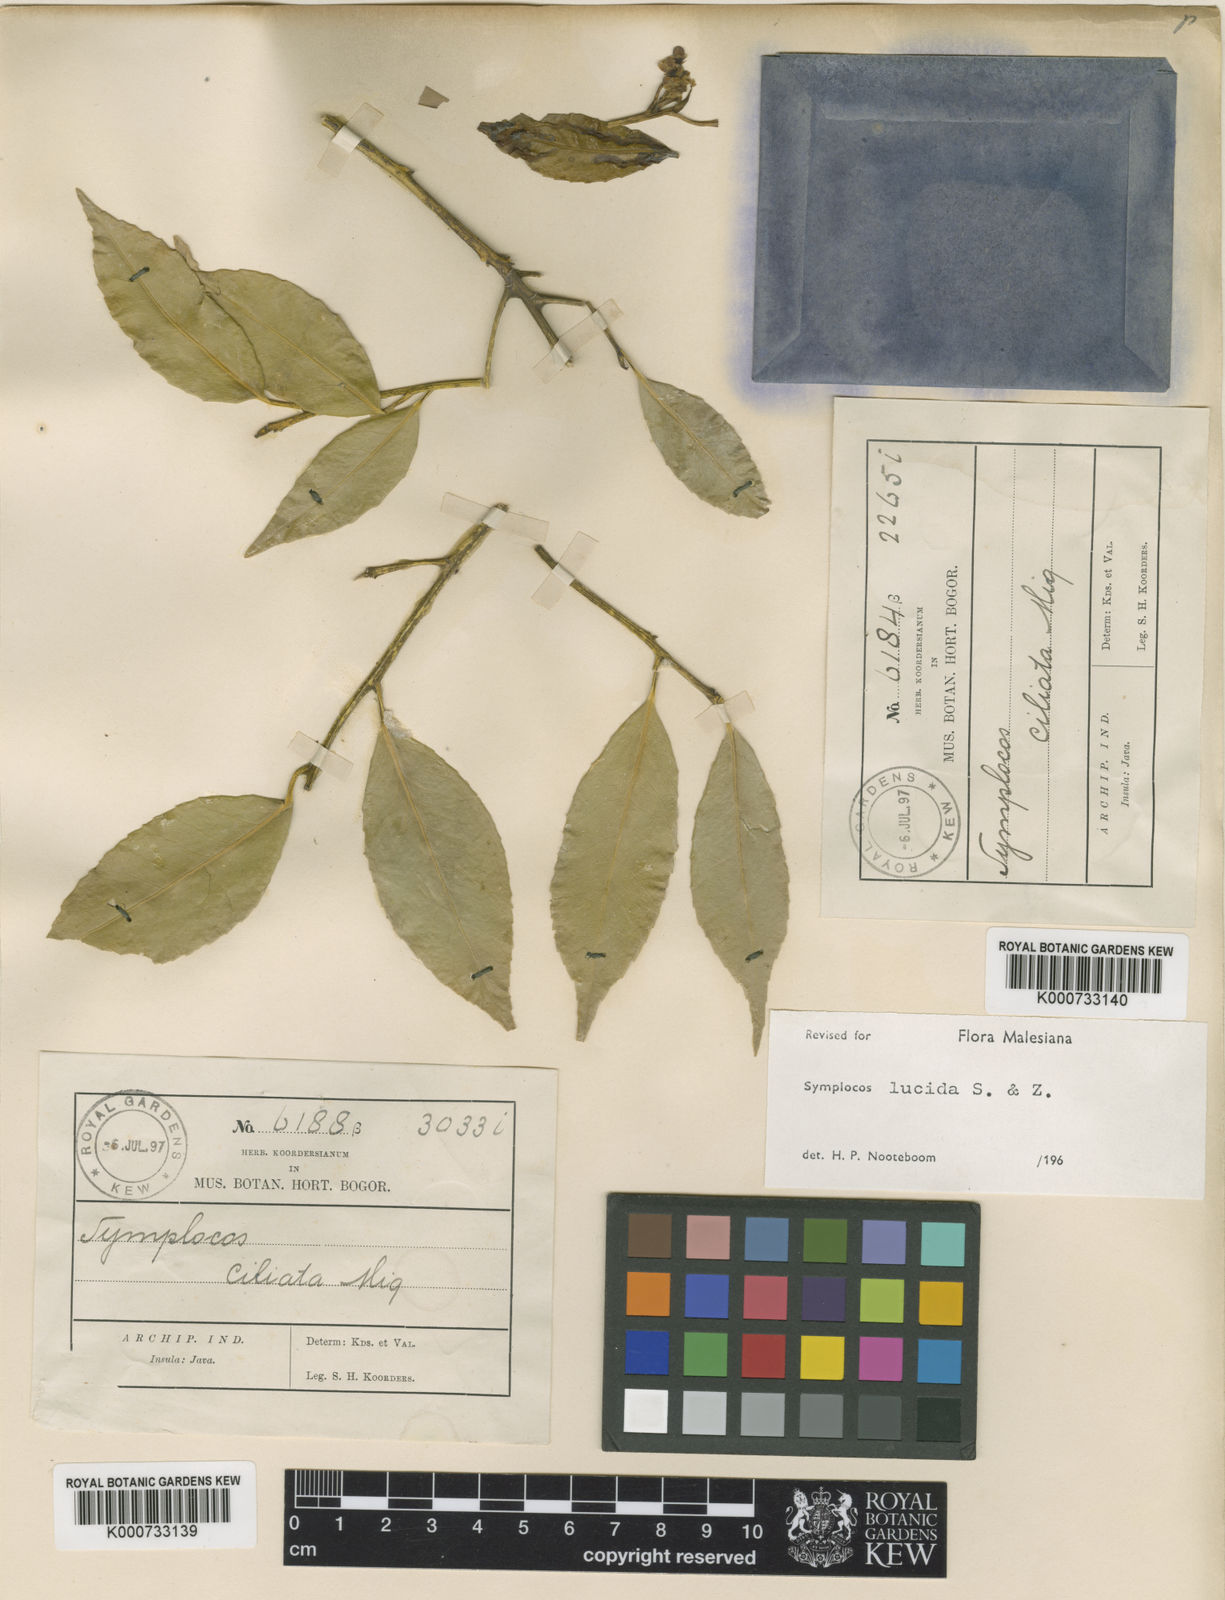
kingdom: Plantae
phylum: Tracheophyta
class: Magnoliopsida
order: Ericales
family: Symplocaceae
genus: Symplocos
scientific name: Symplocos
